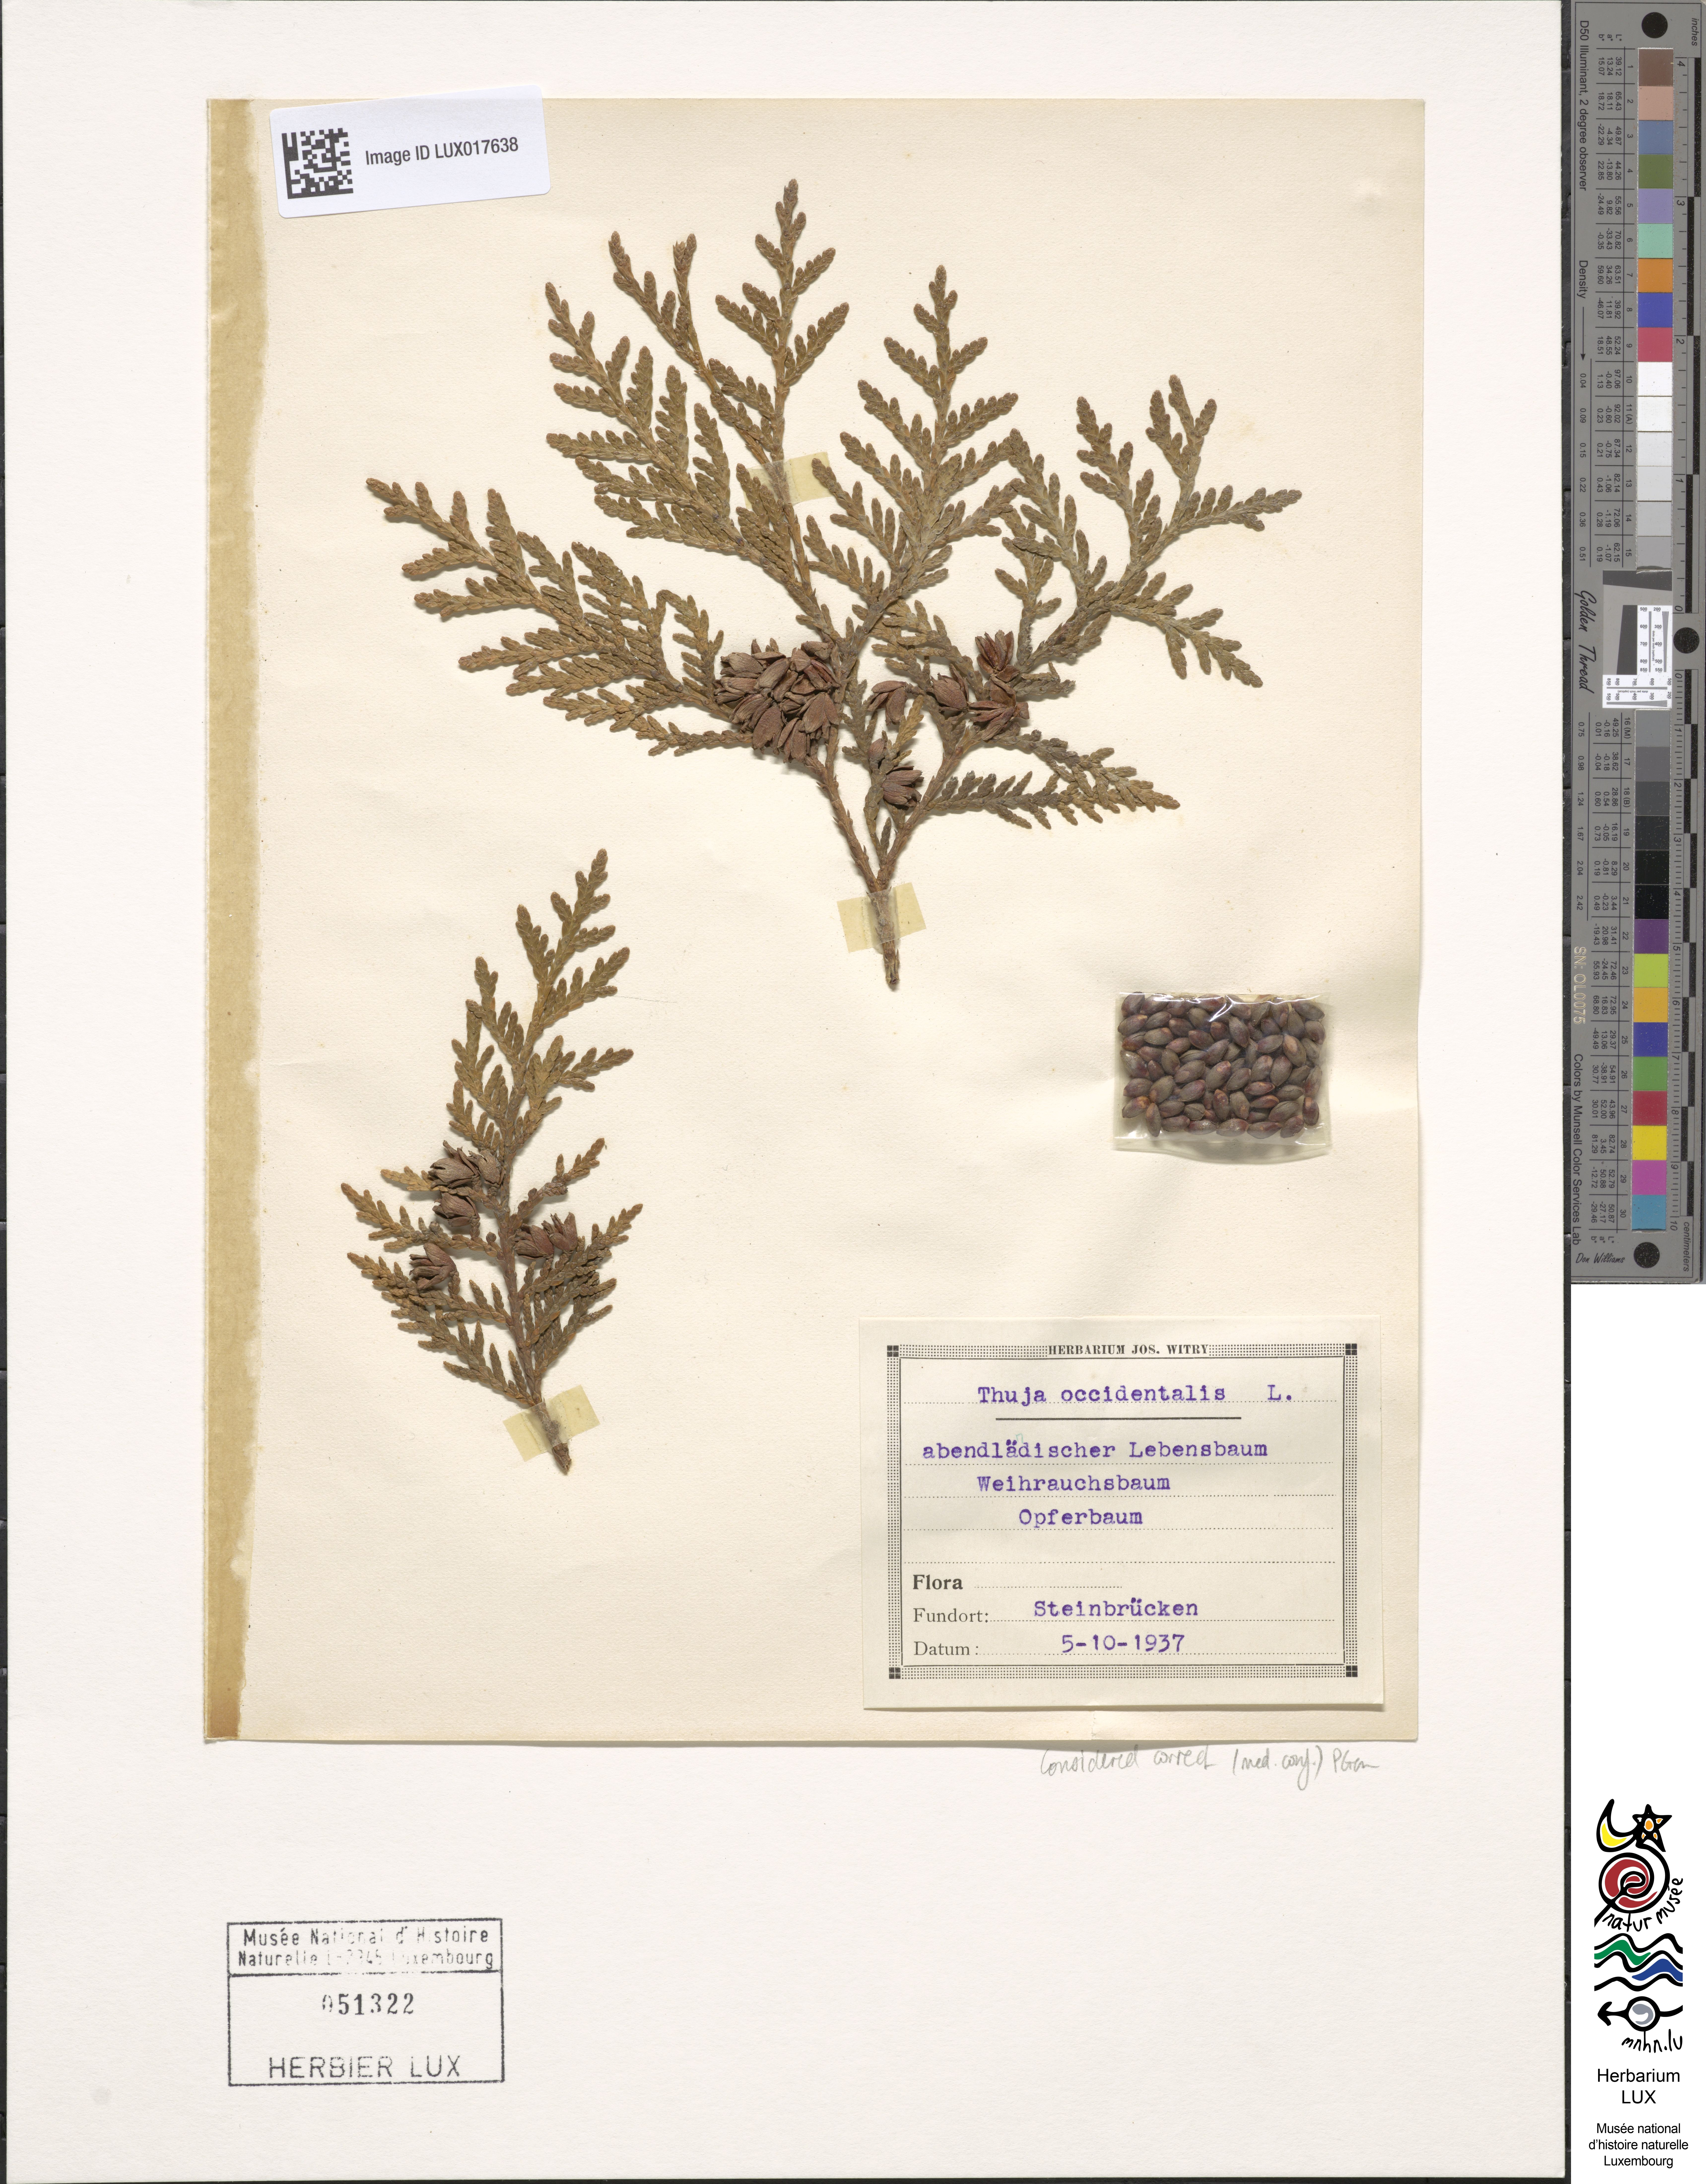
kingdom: Plantae
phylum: Tracheophyta
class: Pinopsida
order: Pinales
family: Cupressaceae
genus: Thuja
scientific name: Thuja occidentalis
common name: Northern white-cedar
